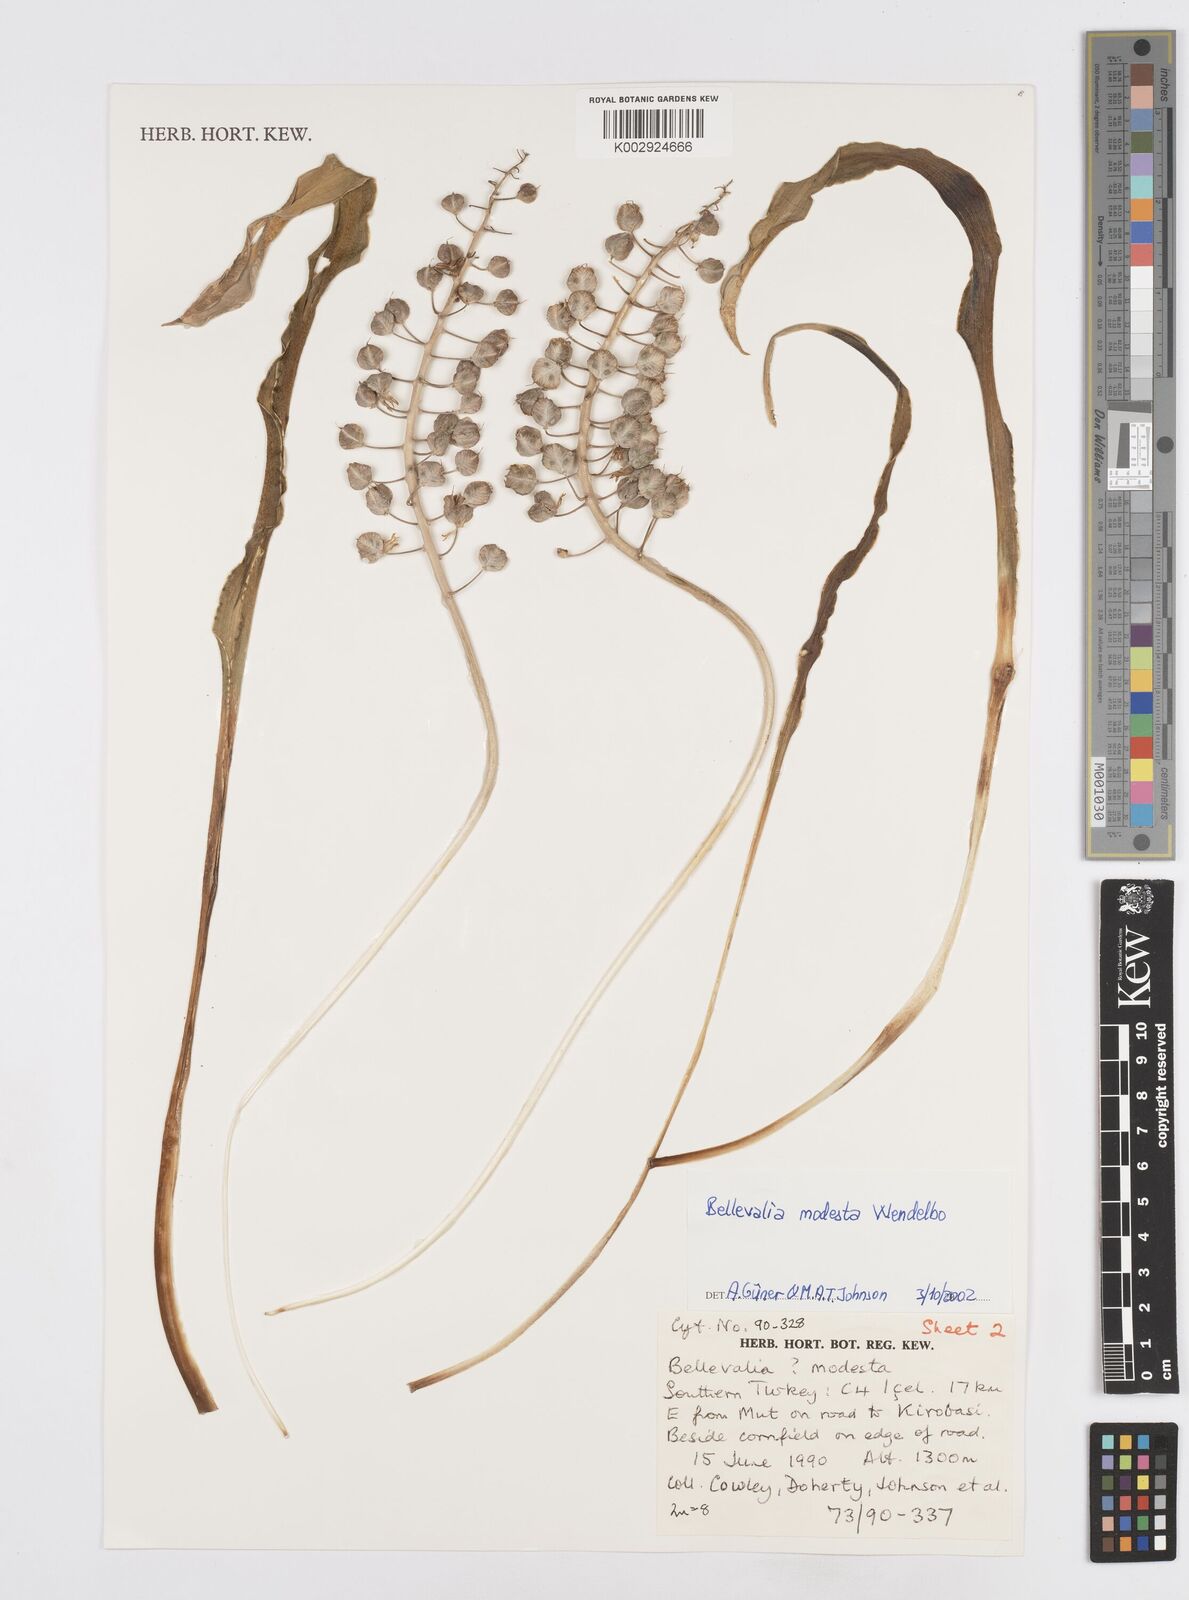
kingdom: Plantae
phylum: Tracheophyta
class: Liliopsida
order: Asparagales
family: Asparagaceae
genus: Bellevalia
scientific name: Bellevalia modesta
